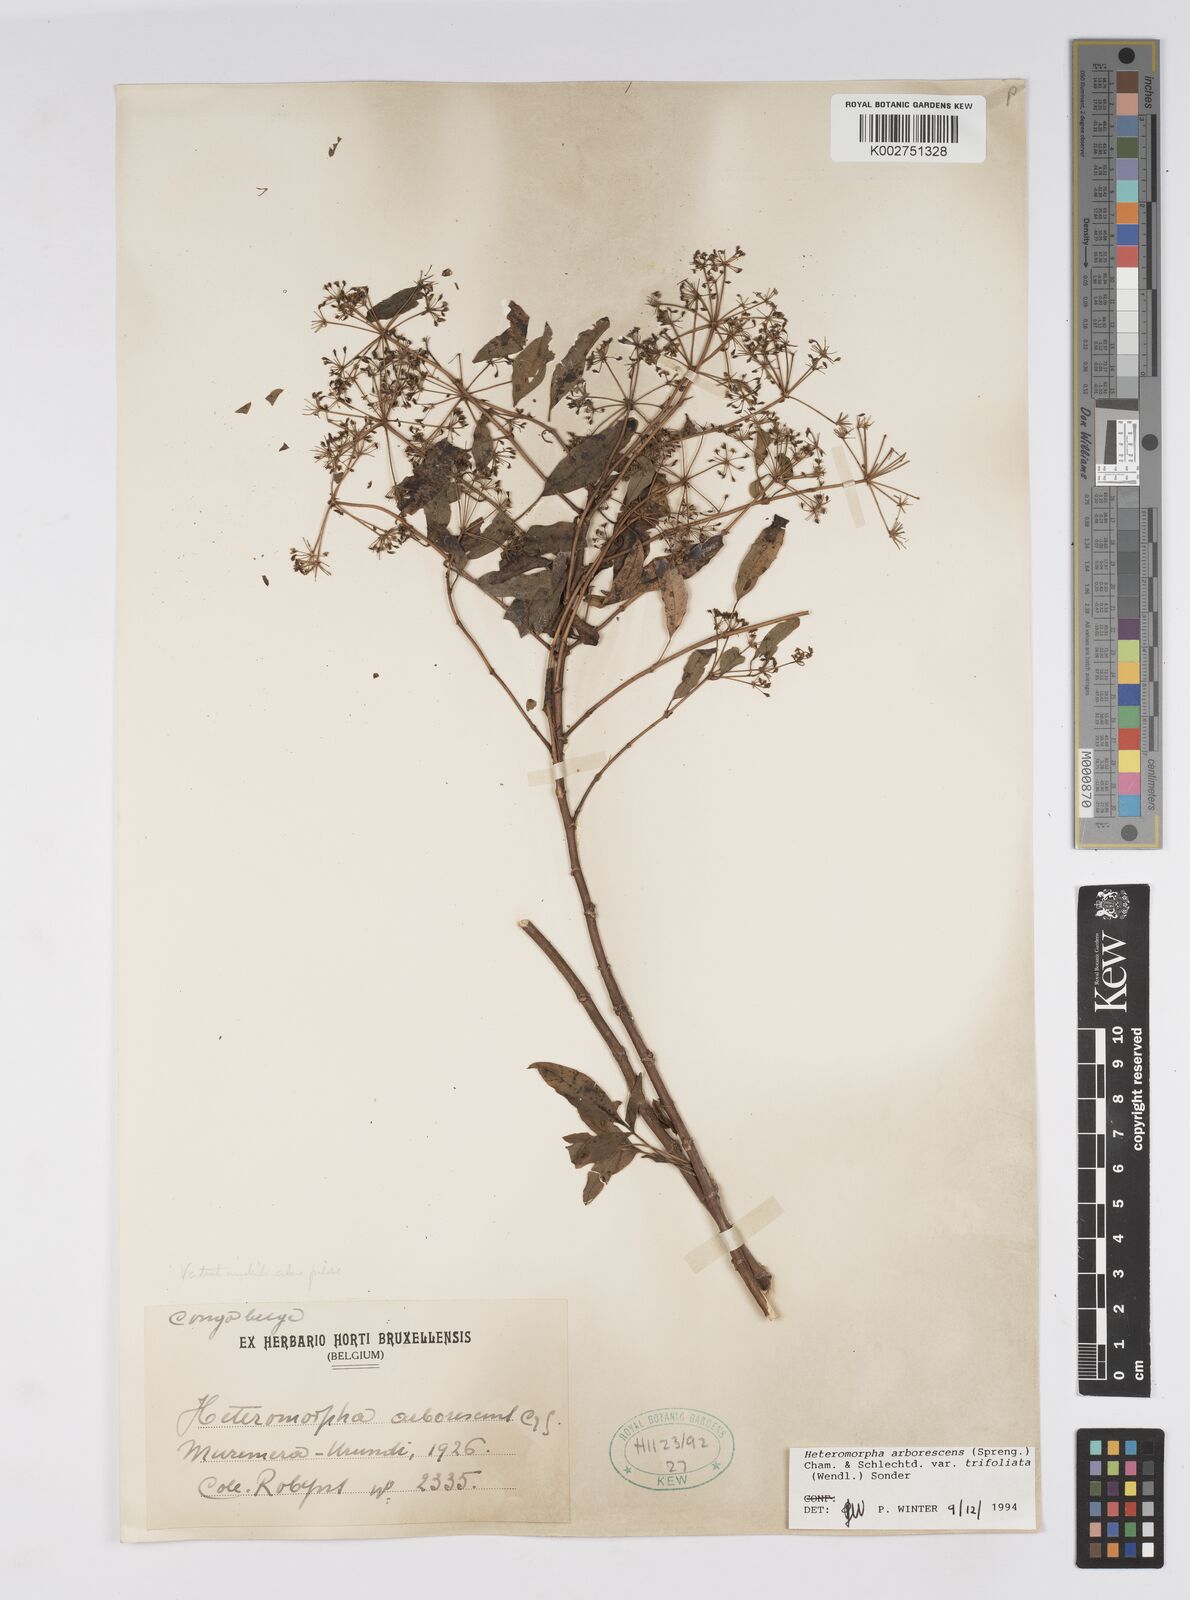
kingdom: Plantae
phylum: Tracheophyta
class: Magnoliopsida
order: Apiales
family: Apiaceae
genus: Heteromorpha
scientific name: Heteromorpha arborescens
